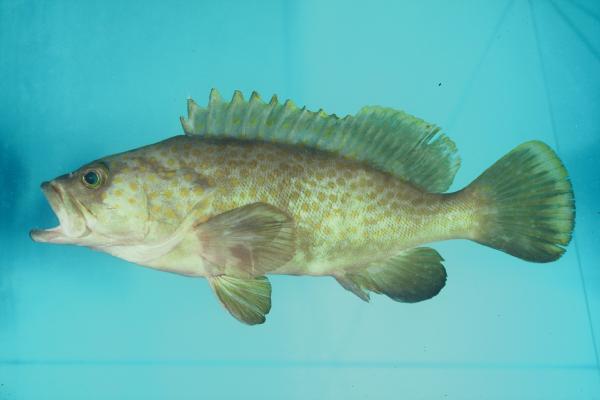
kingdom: Animalia
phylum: Chordata
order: Perciformes
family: Serranidae
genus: Epinephelus
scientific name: Epinephelus akaara
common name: Hong kong grouper
